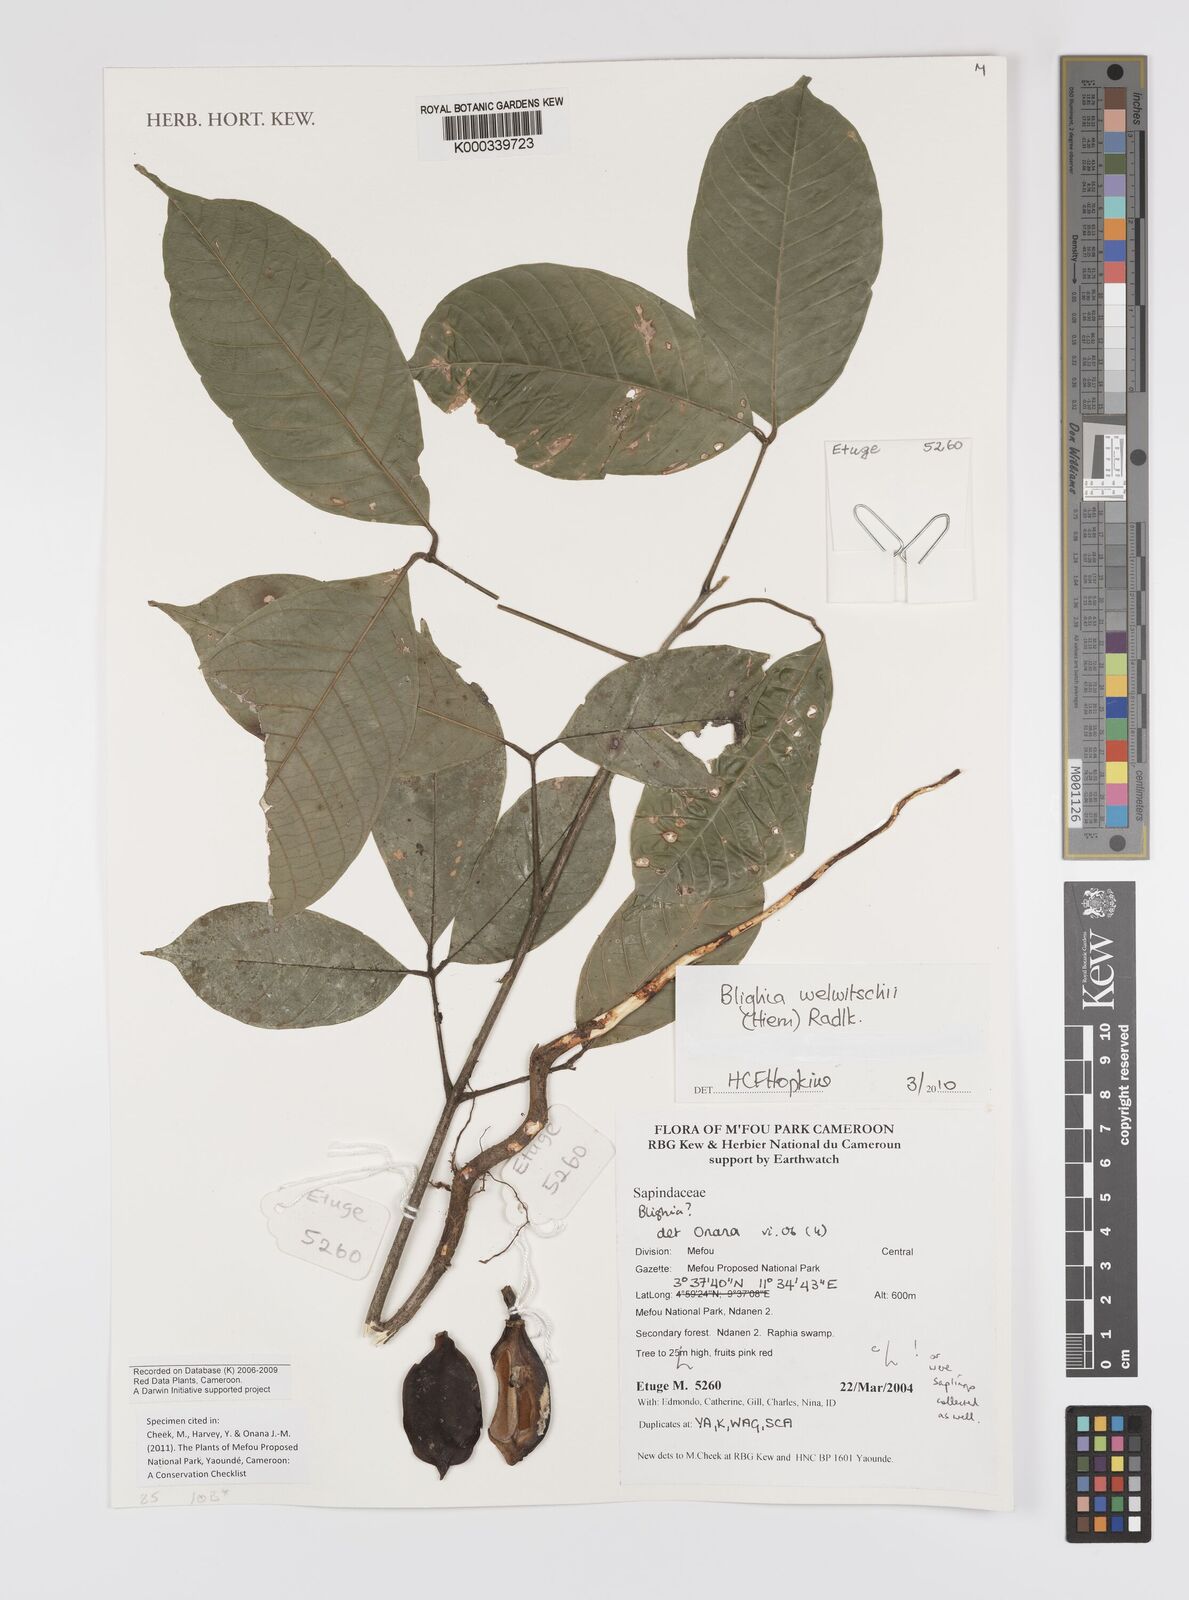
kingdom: Plantae
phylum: Tracheophyta
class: Magnoliopsida
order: Sapindales
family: Sapindaceae
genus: Blighia
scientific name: Blighia welwitschii
